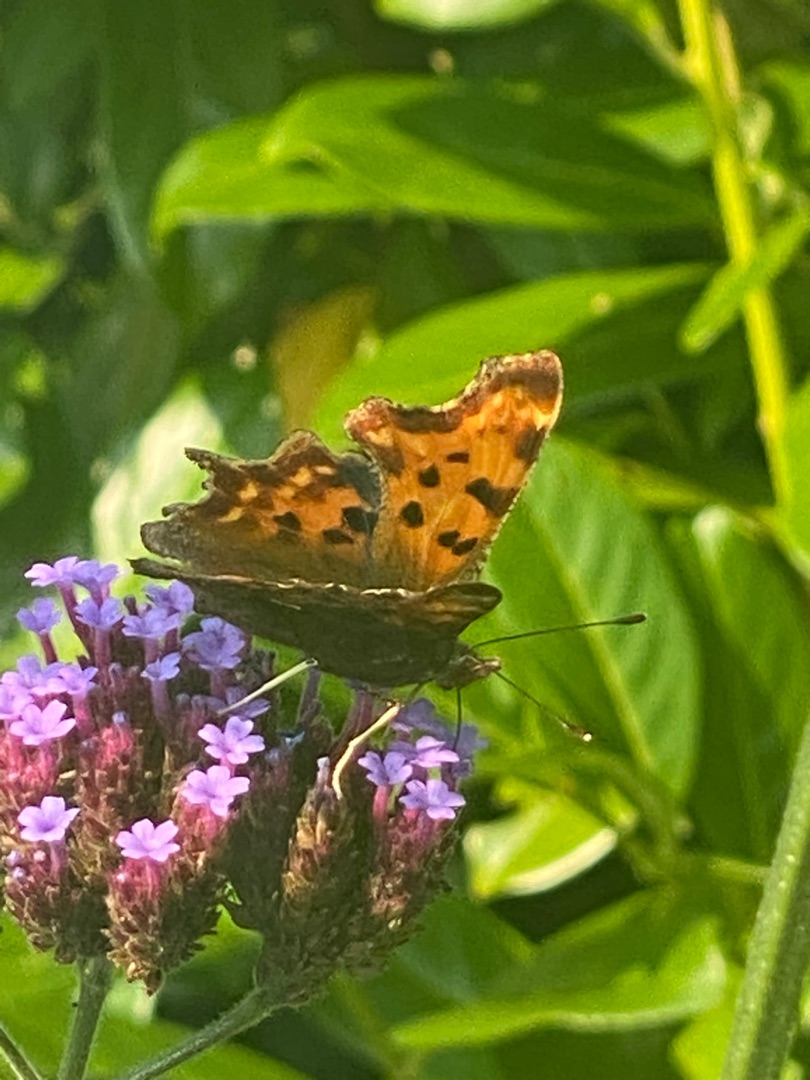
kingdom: Animalia
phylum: Arthropoda
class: Insecta
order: Lepidoptera
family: Nymphalidae
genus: Polygonia
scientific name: Polygonia c-album
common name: Det hvide C
